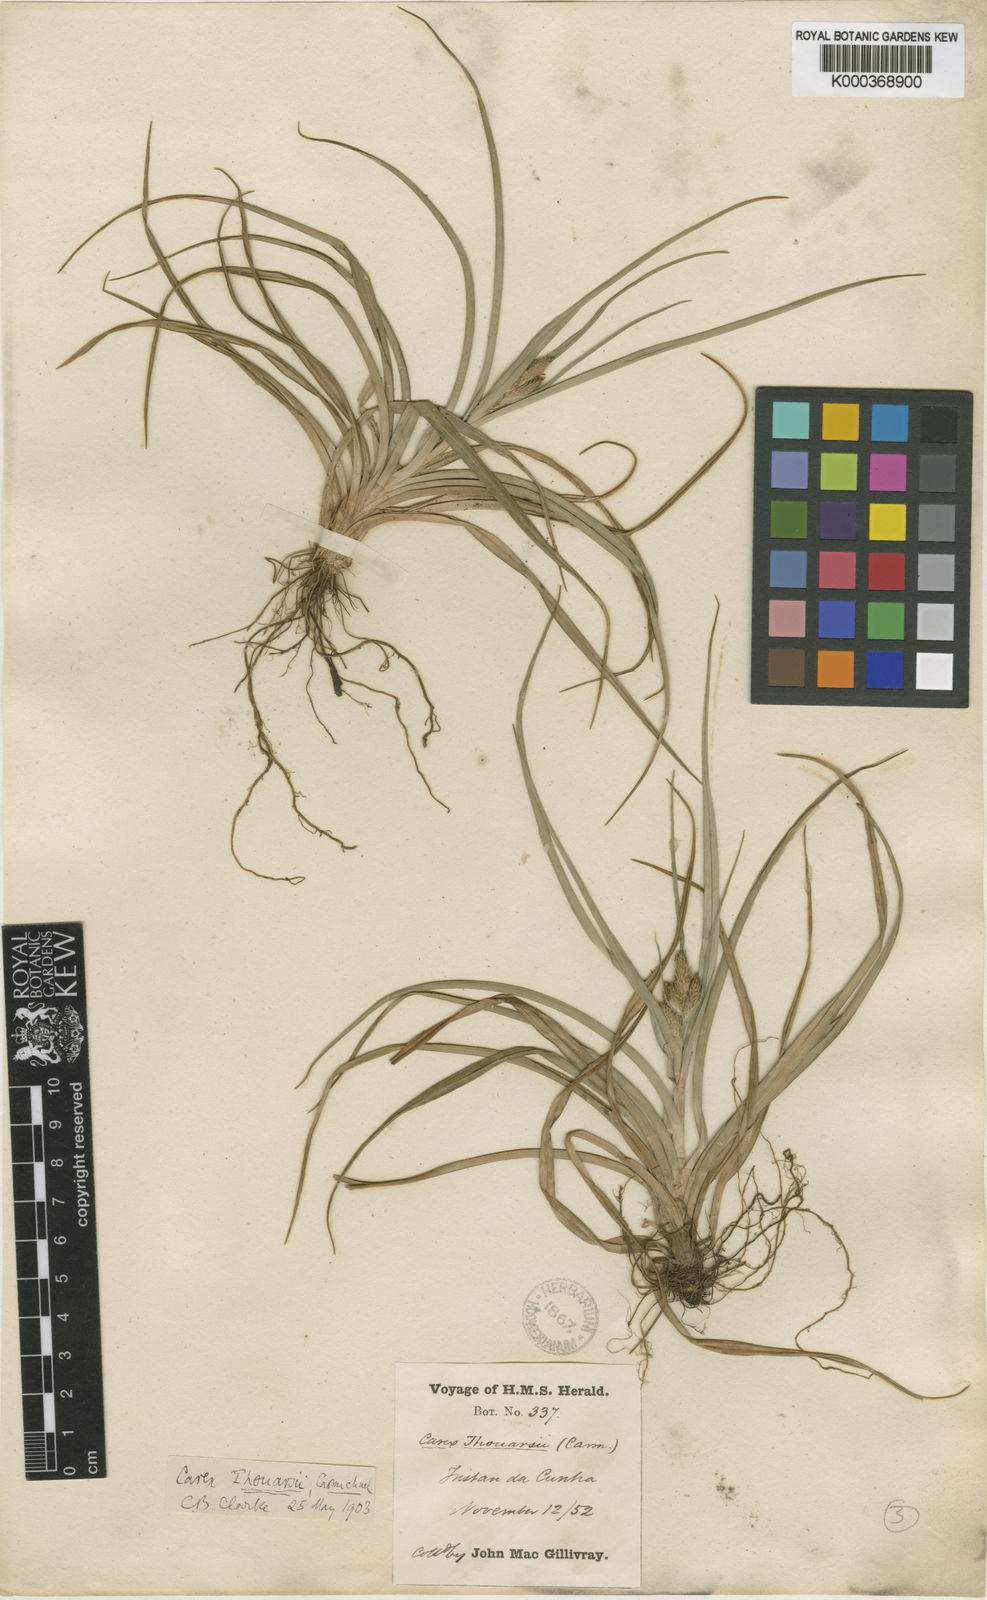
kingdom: Plantae
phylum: Tracheophyta
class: Liliopsida
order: Poales
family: Cyperaceae
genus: Carex
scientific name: Carex thouarsii
